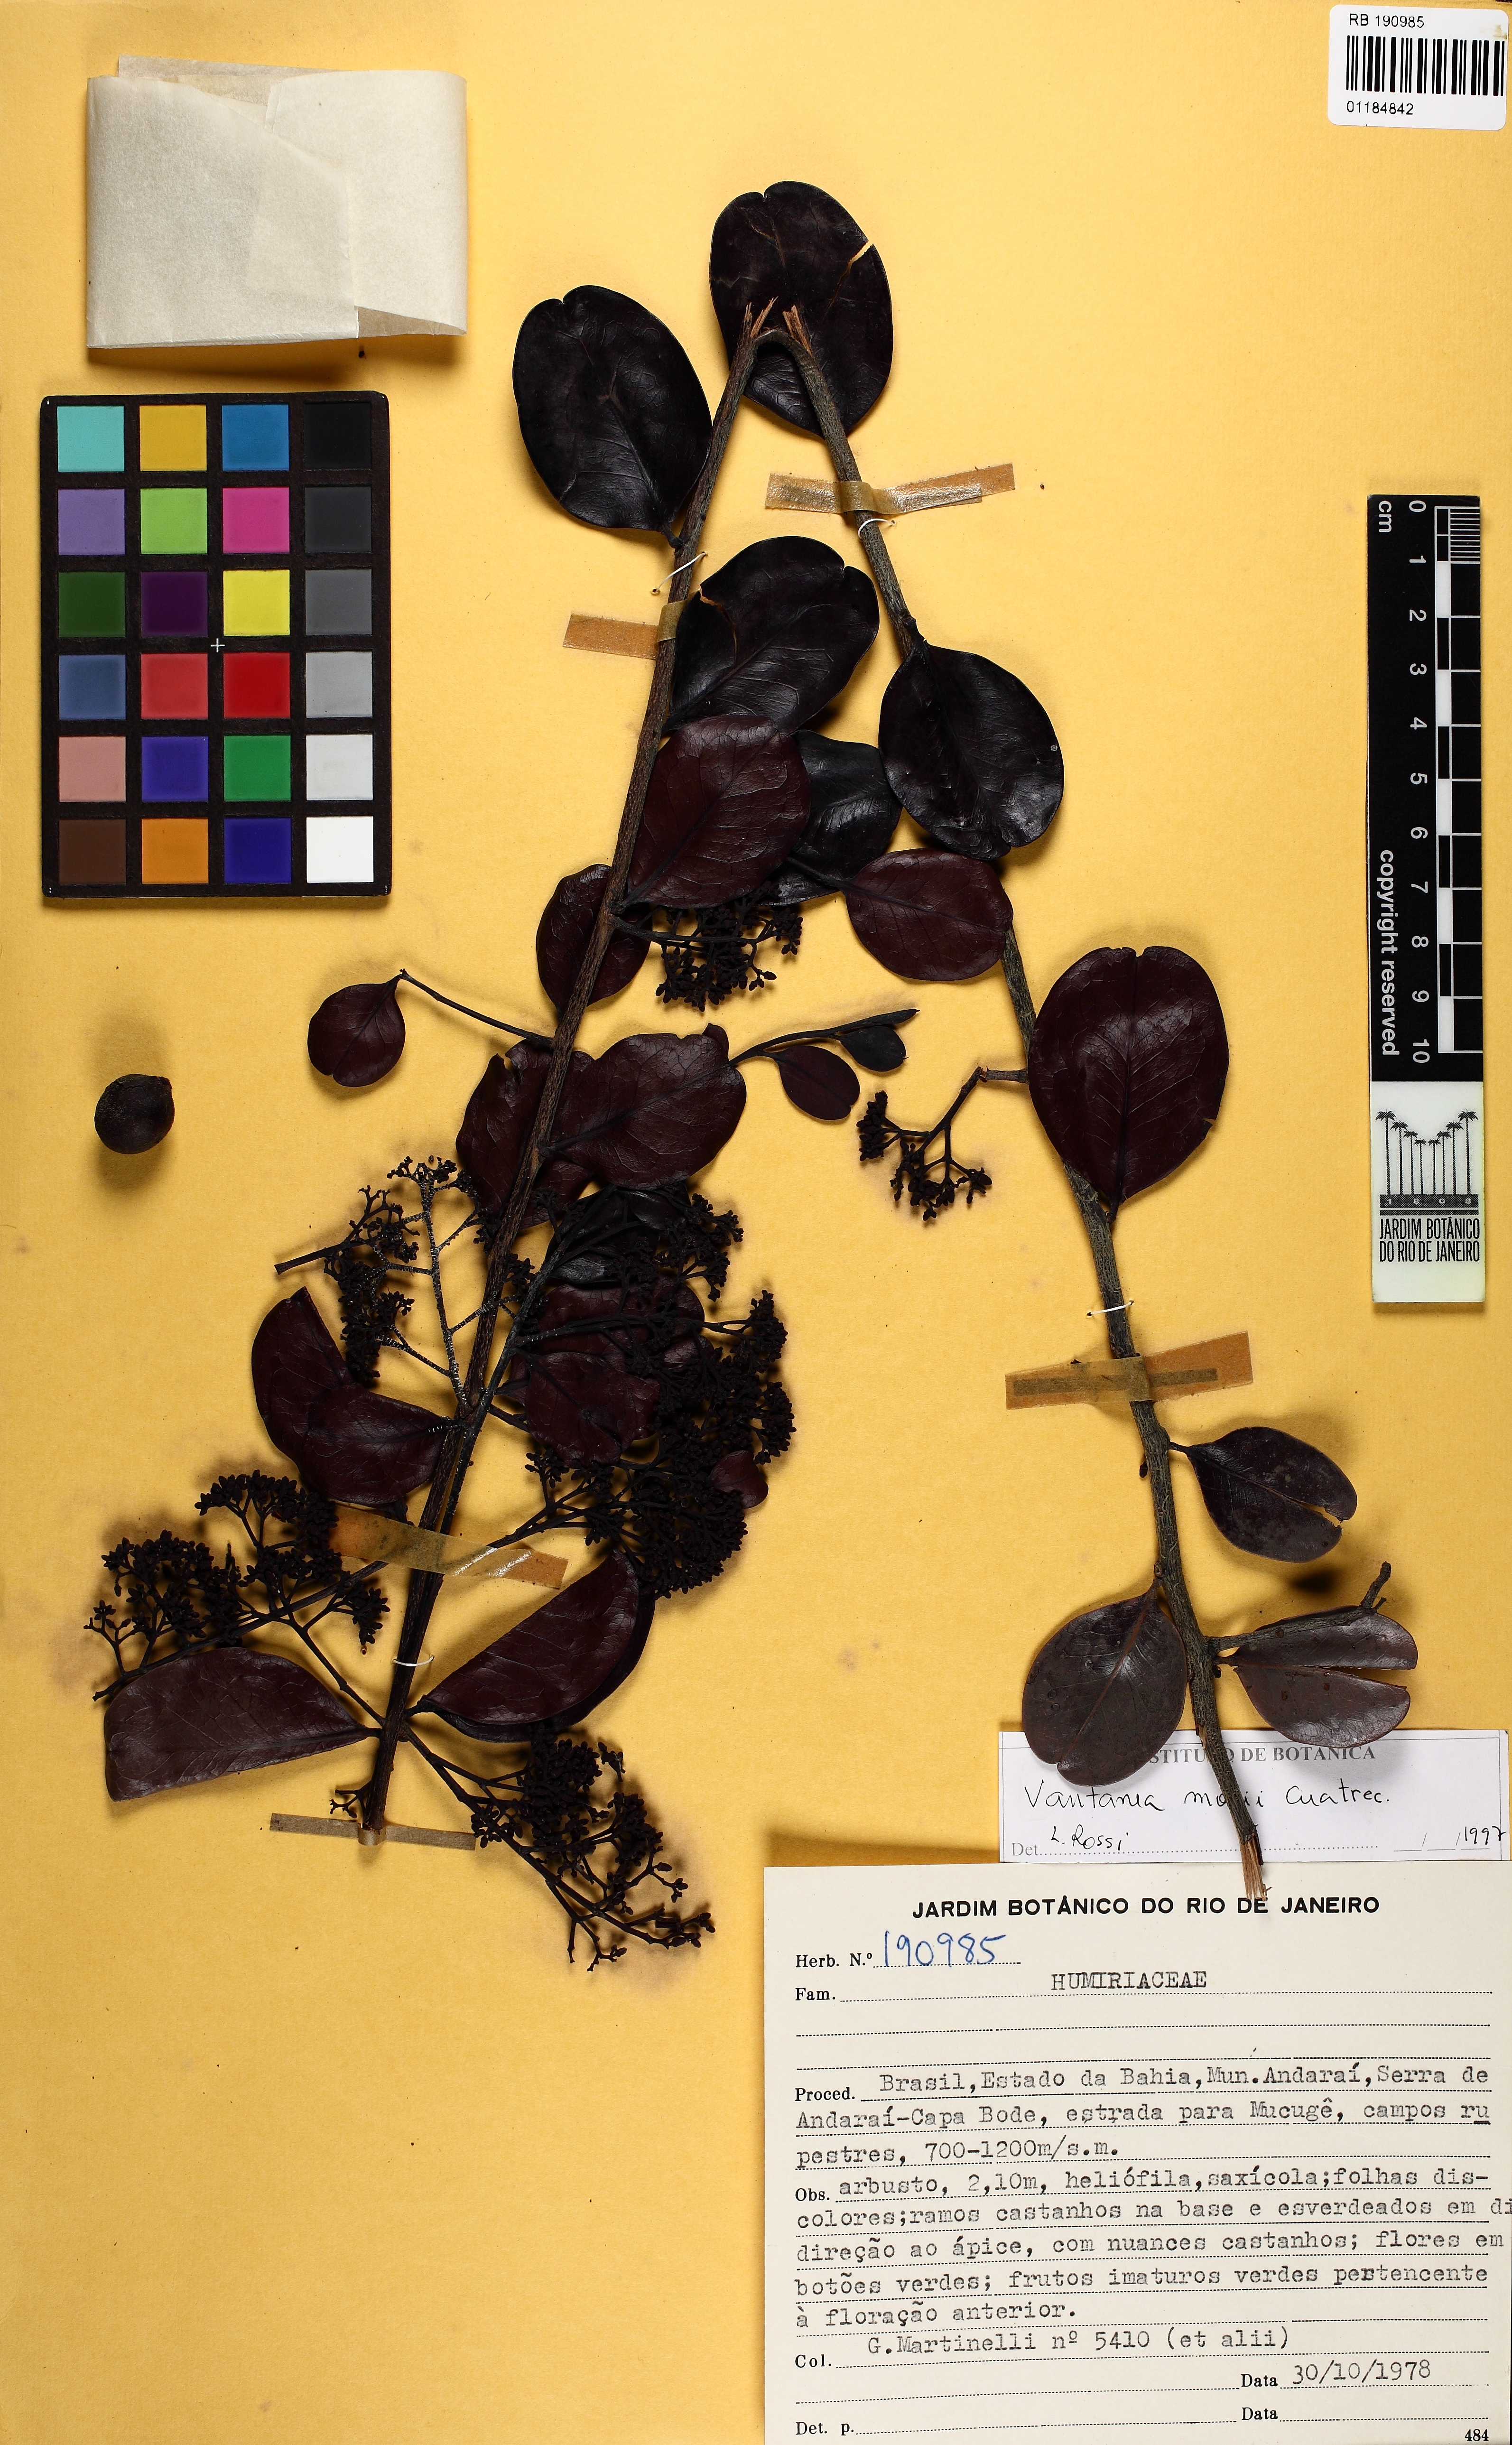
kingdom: Plantae
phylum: Tracheophyta
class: Magnoliopsida
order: Malpighiales
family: Humiriaceae
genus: Vantanea
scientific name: Vantanea morii
